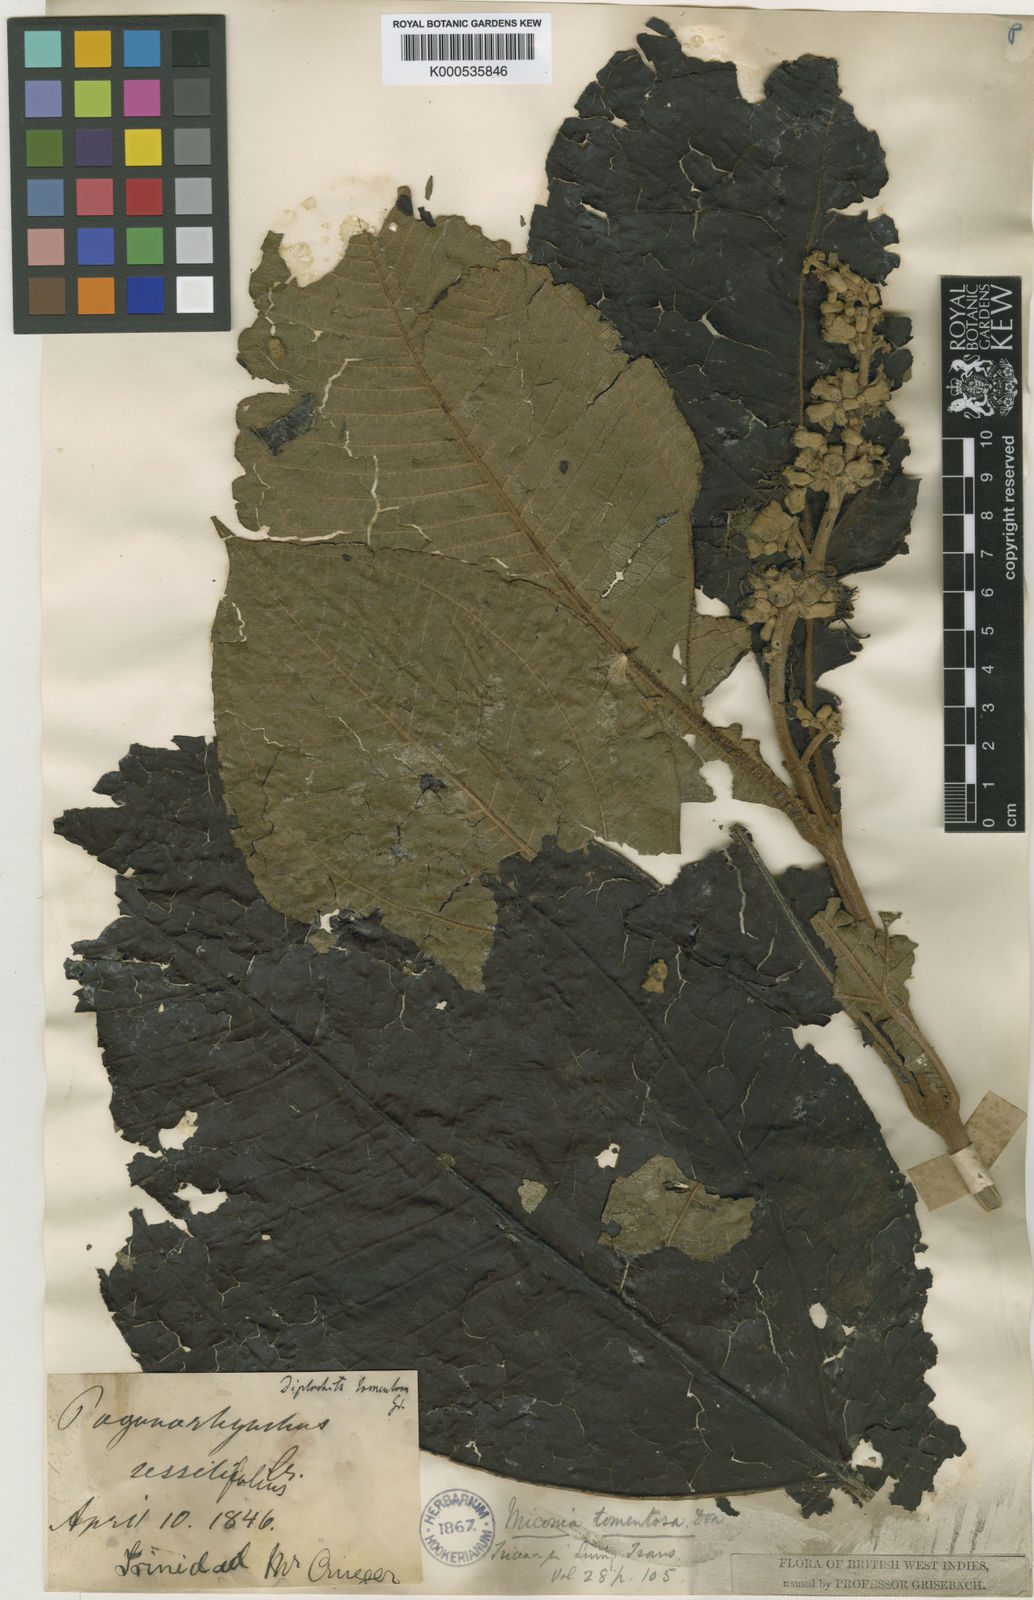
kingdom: Plantae
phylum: Tracheophyta
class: Magnoliopsida
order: Myrtales
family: Melastomataceae
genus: Miconia
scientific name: Miconia
